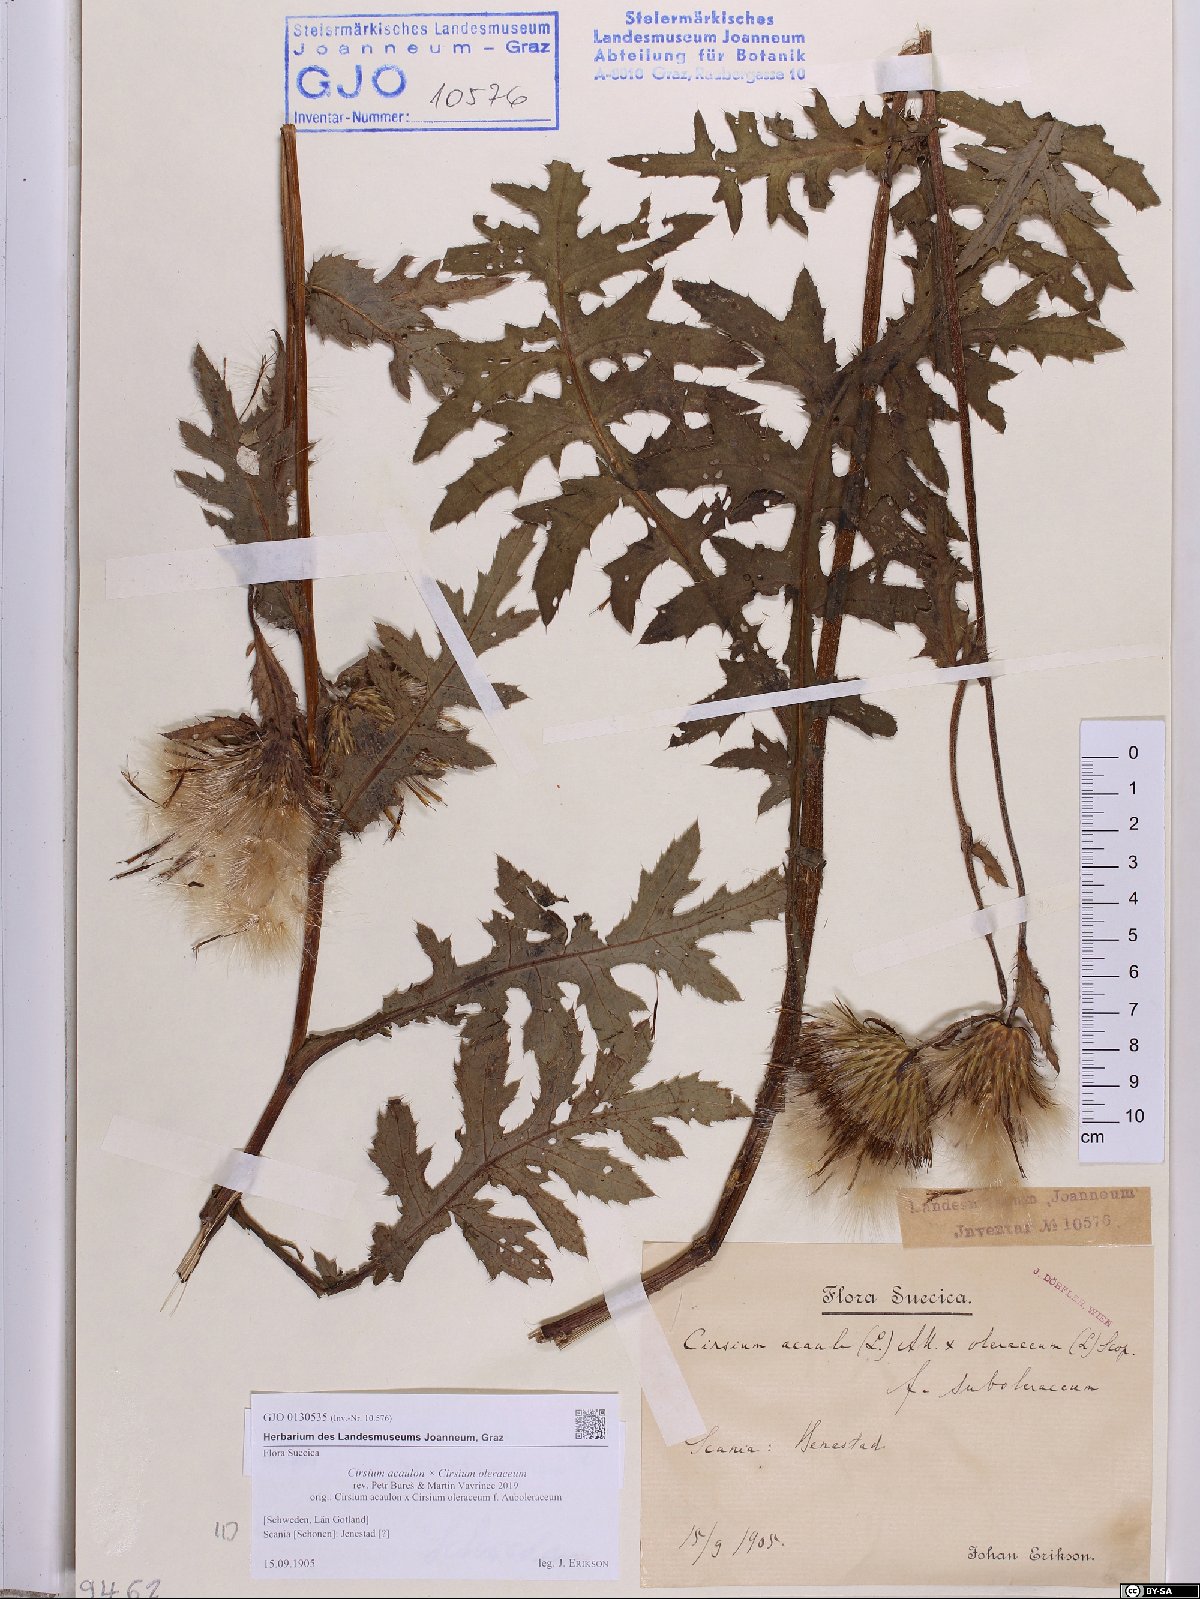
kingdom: Plantae
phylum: Tracheophyta
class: Magnoliopsida
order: Asterales
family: Asteraceae
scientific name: Asteraceae
